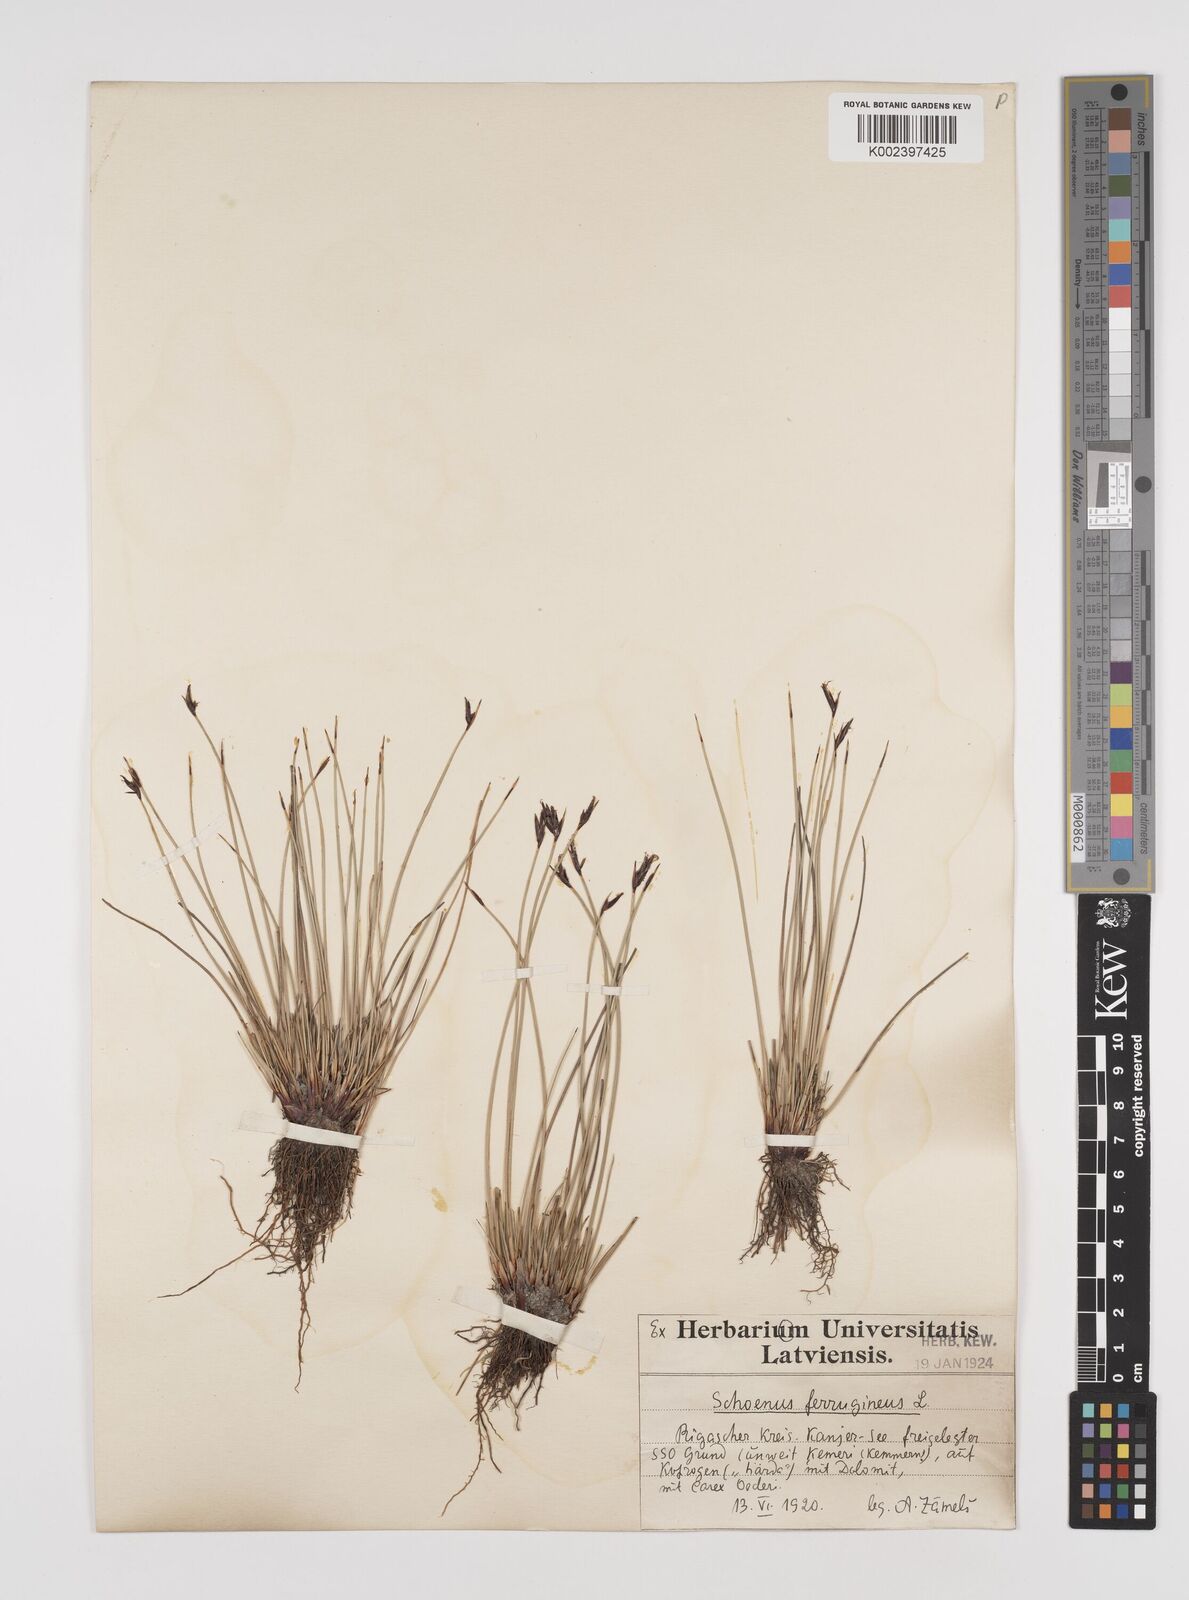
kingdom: Plantae
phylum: Tracheophyta
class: Liliopsida
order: Poales
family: Cyperaceae
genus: Schoenus
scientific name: Schoenus ferrugineus
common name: Brown bog-rush
